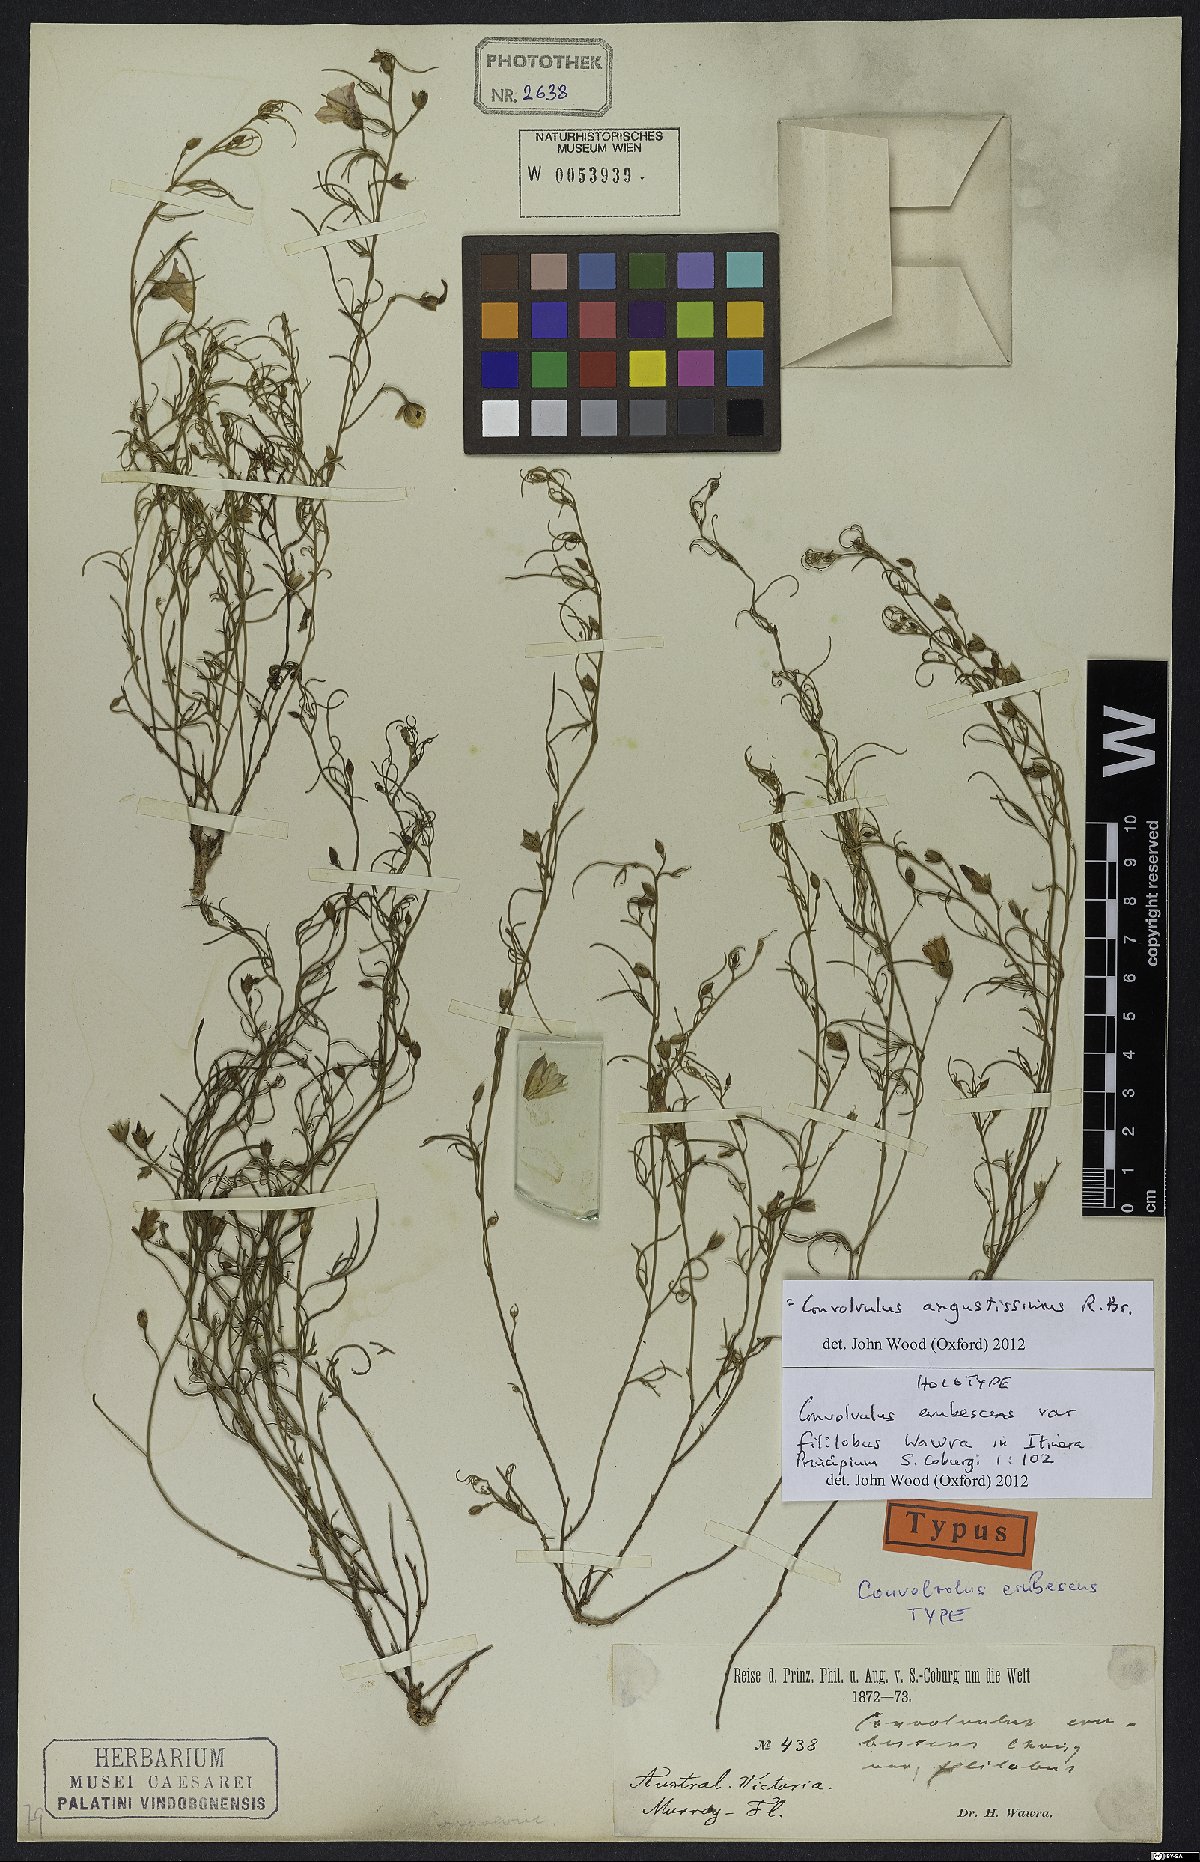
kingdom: Plantae
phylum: Tracheophyta
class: Magnoliopsida
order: Solanales
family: Convolvulaceae
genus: Convolvulus
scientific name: Convolvulus angustissimus
